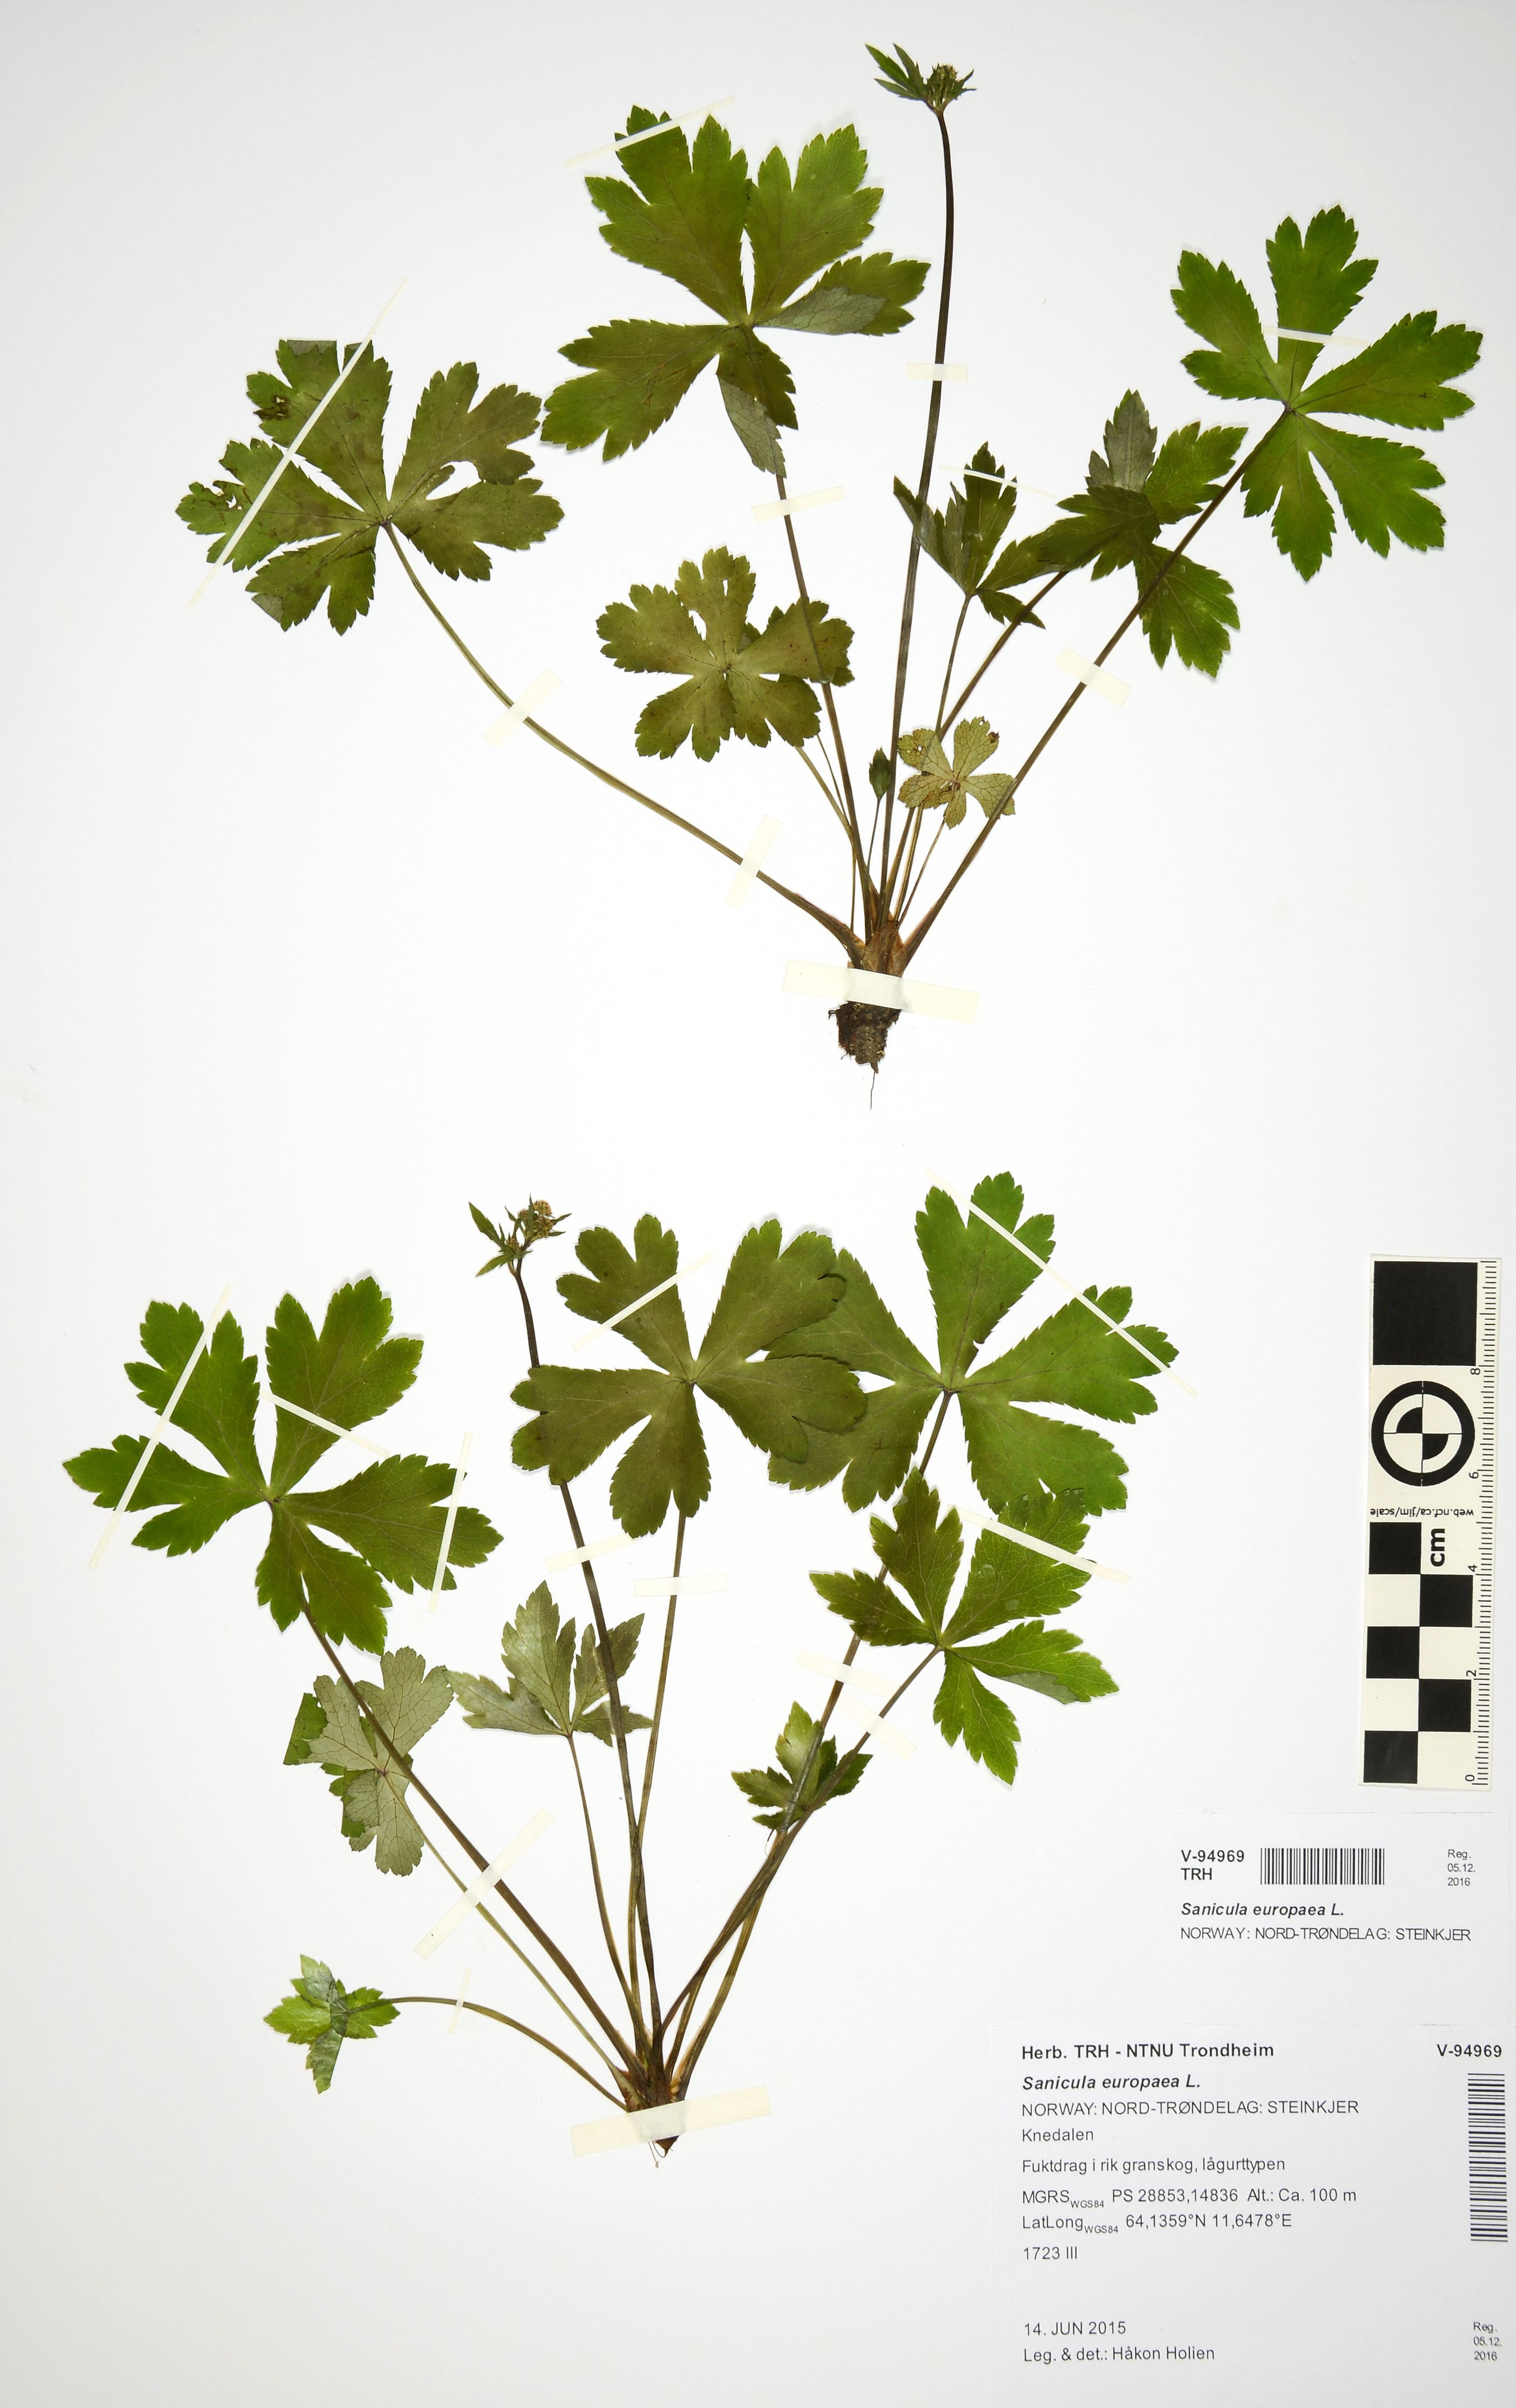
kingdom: Plantae
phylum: Tracheophyta
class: Magnoliopsida
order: Apiales
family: Apiaceae
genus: Sanicula
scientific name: Sanicula europaea
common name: Sanicle
